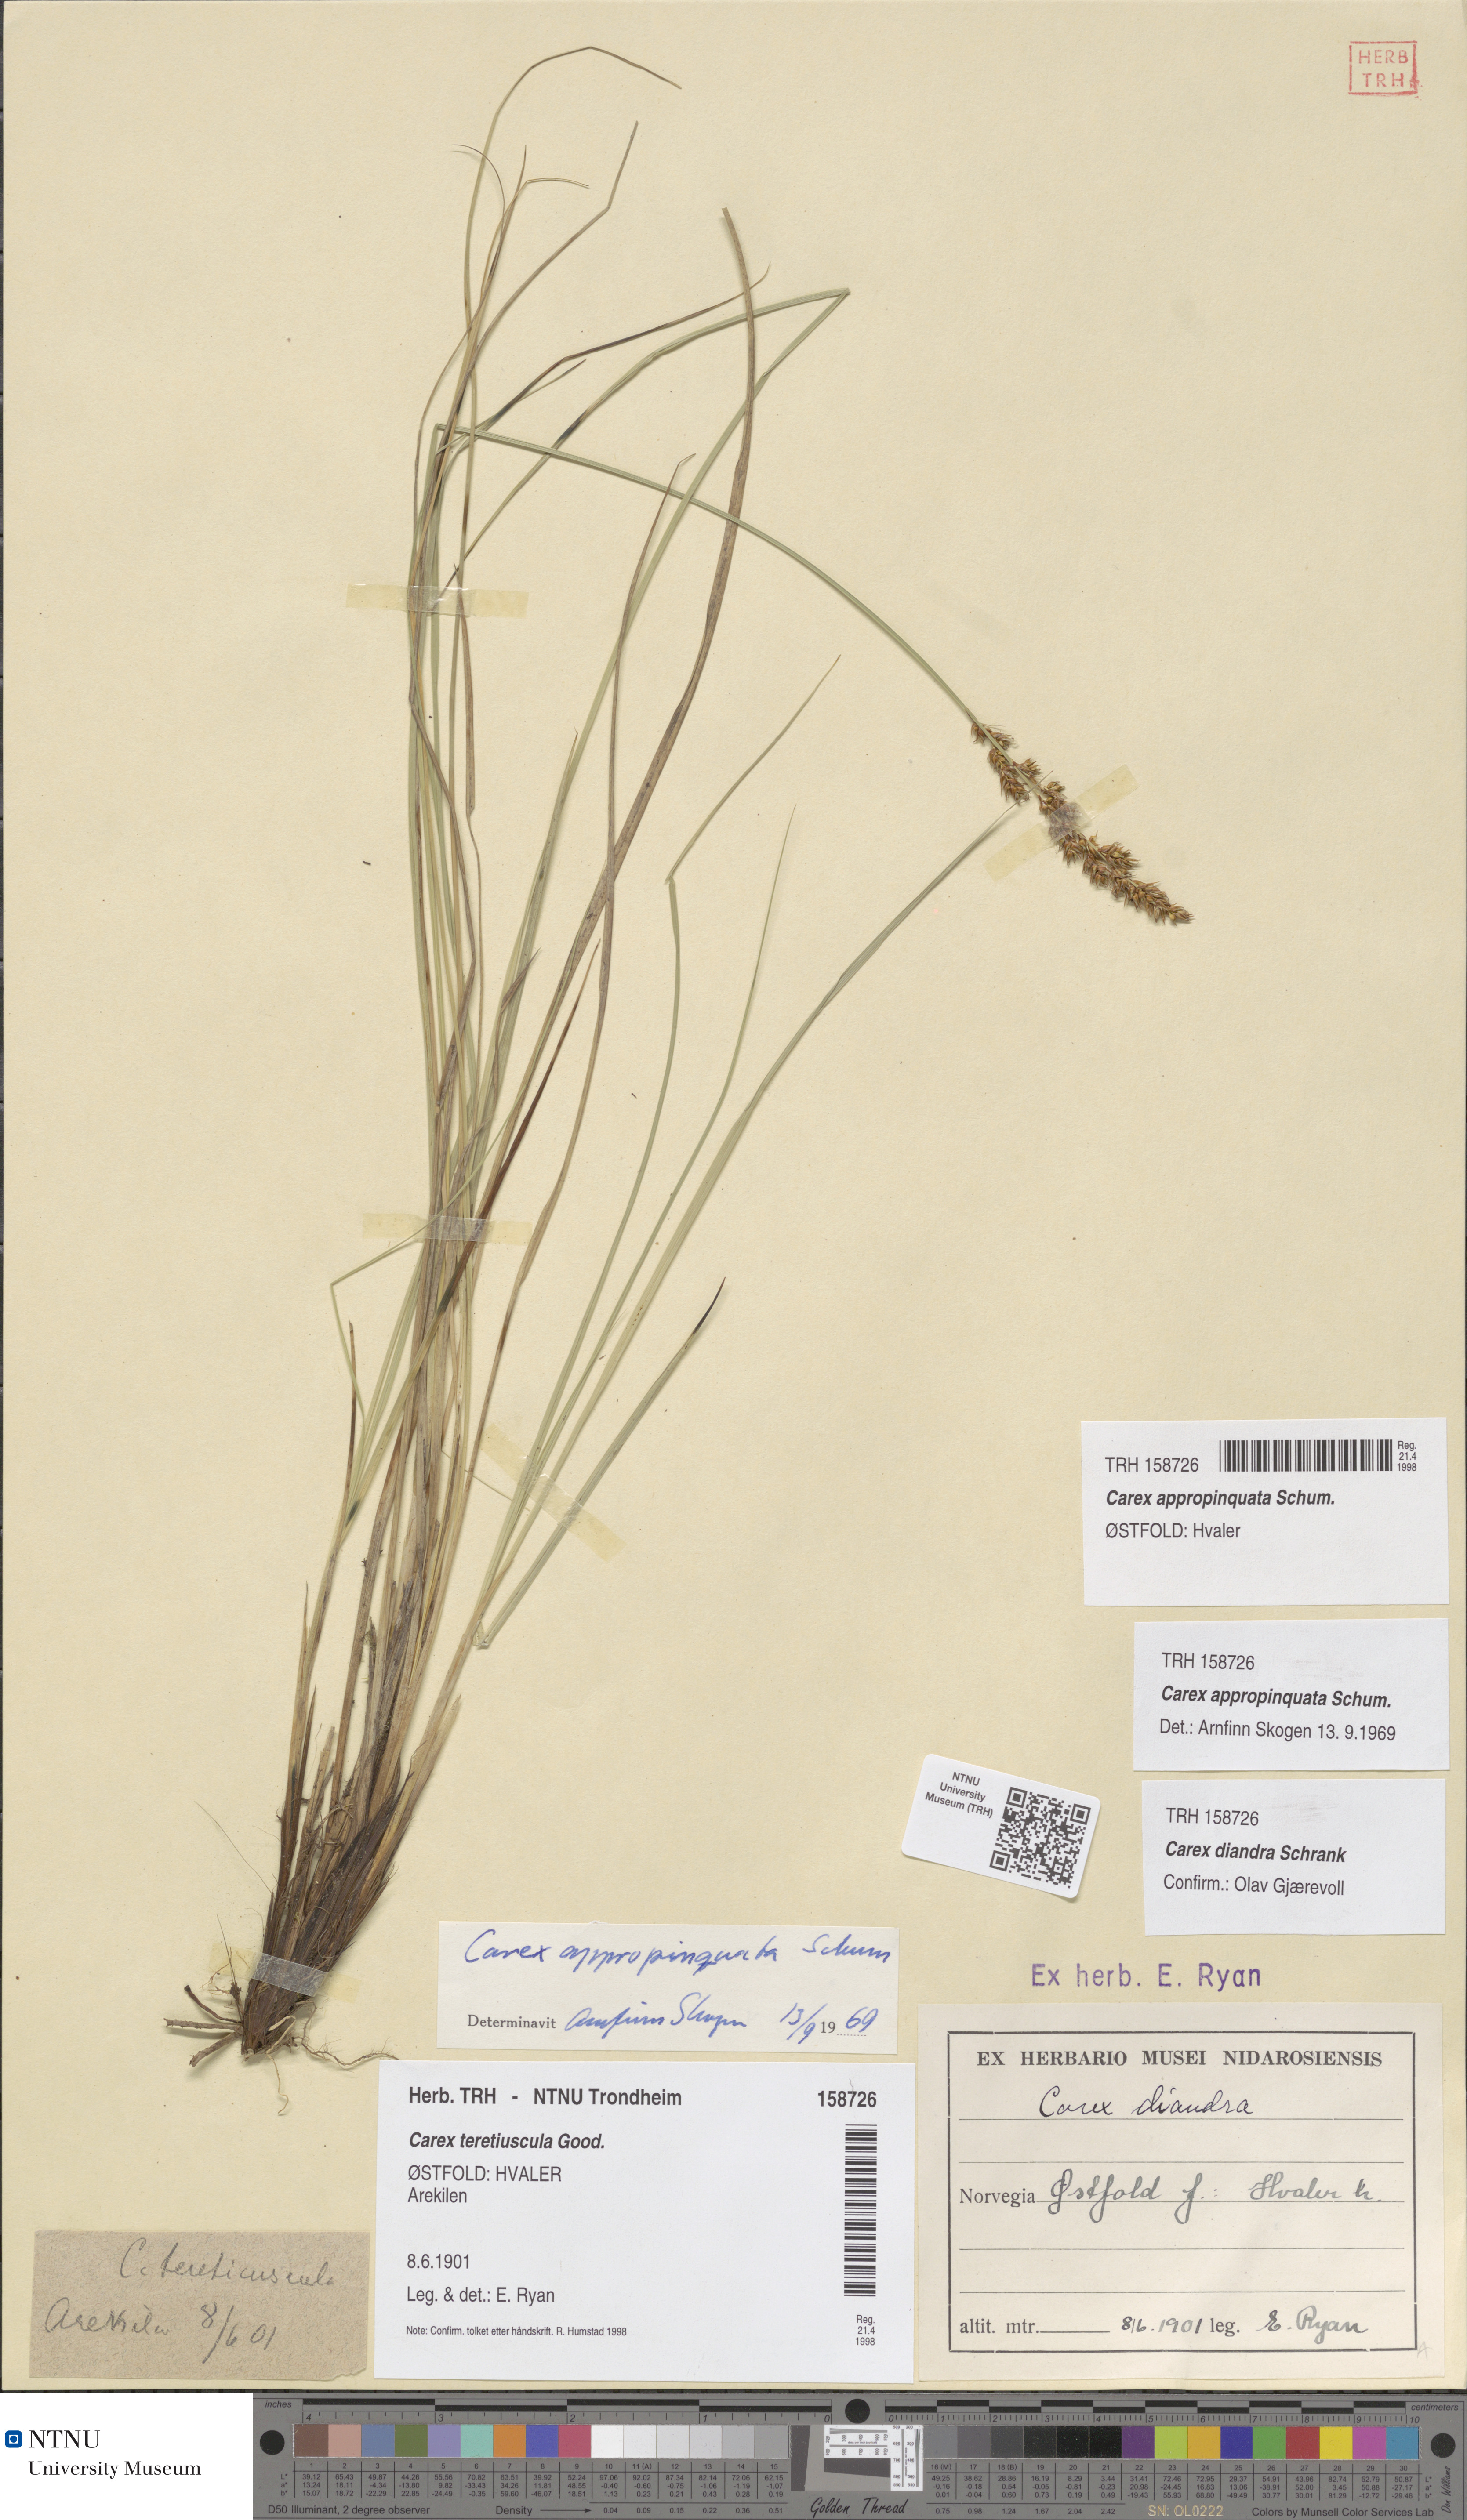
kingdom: Plantae
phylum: Tracheophyta
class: Liliopsida
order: Poales
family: Cyperaceae
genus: Carex
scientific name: Carex appropinquata
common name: Fibrous tussock-sedge
